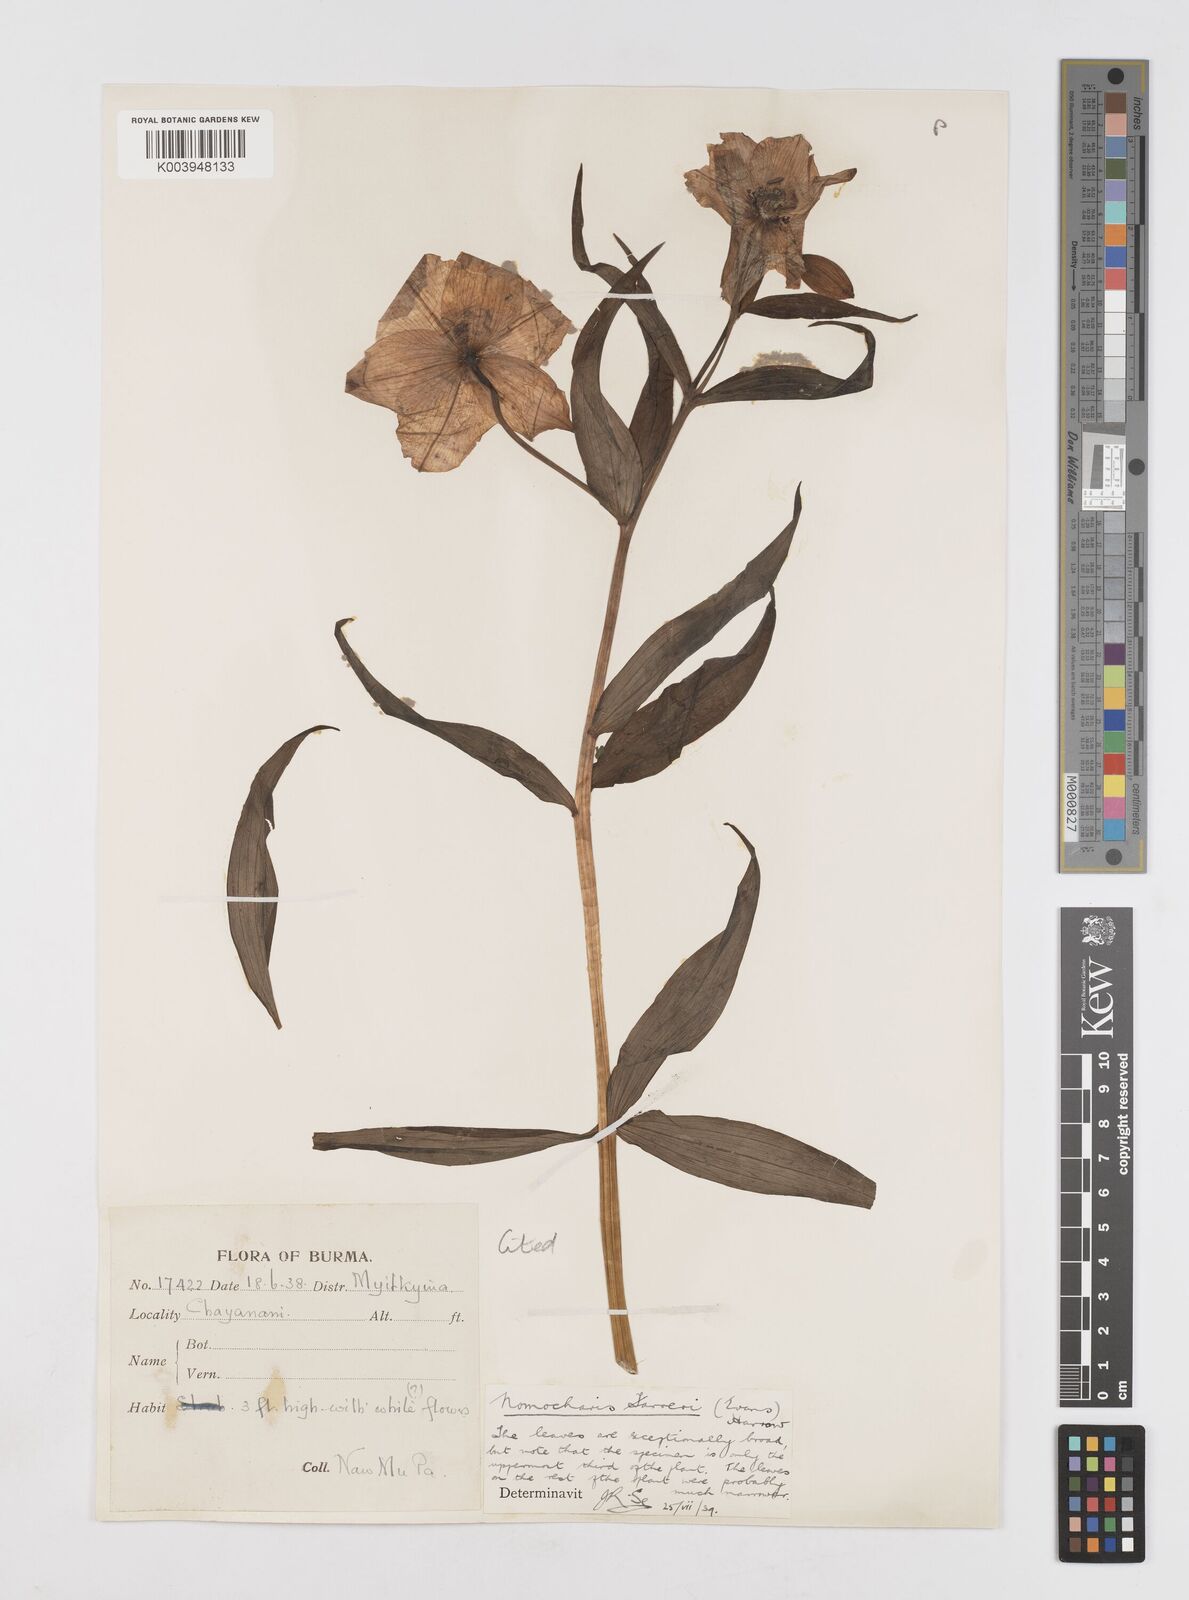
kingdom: Plantae
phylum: Tracheophyta
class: Liliopsida
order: Liliales
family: Liliaceae
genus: Lilium
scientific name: Lilium sealyi
